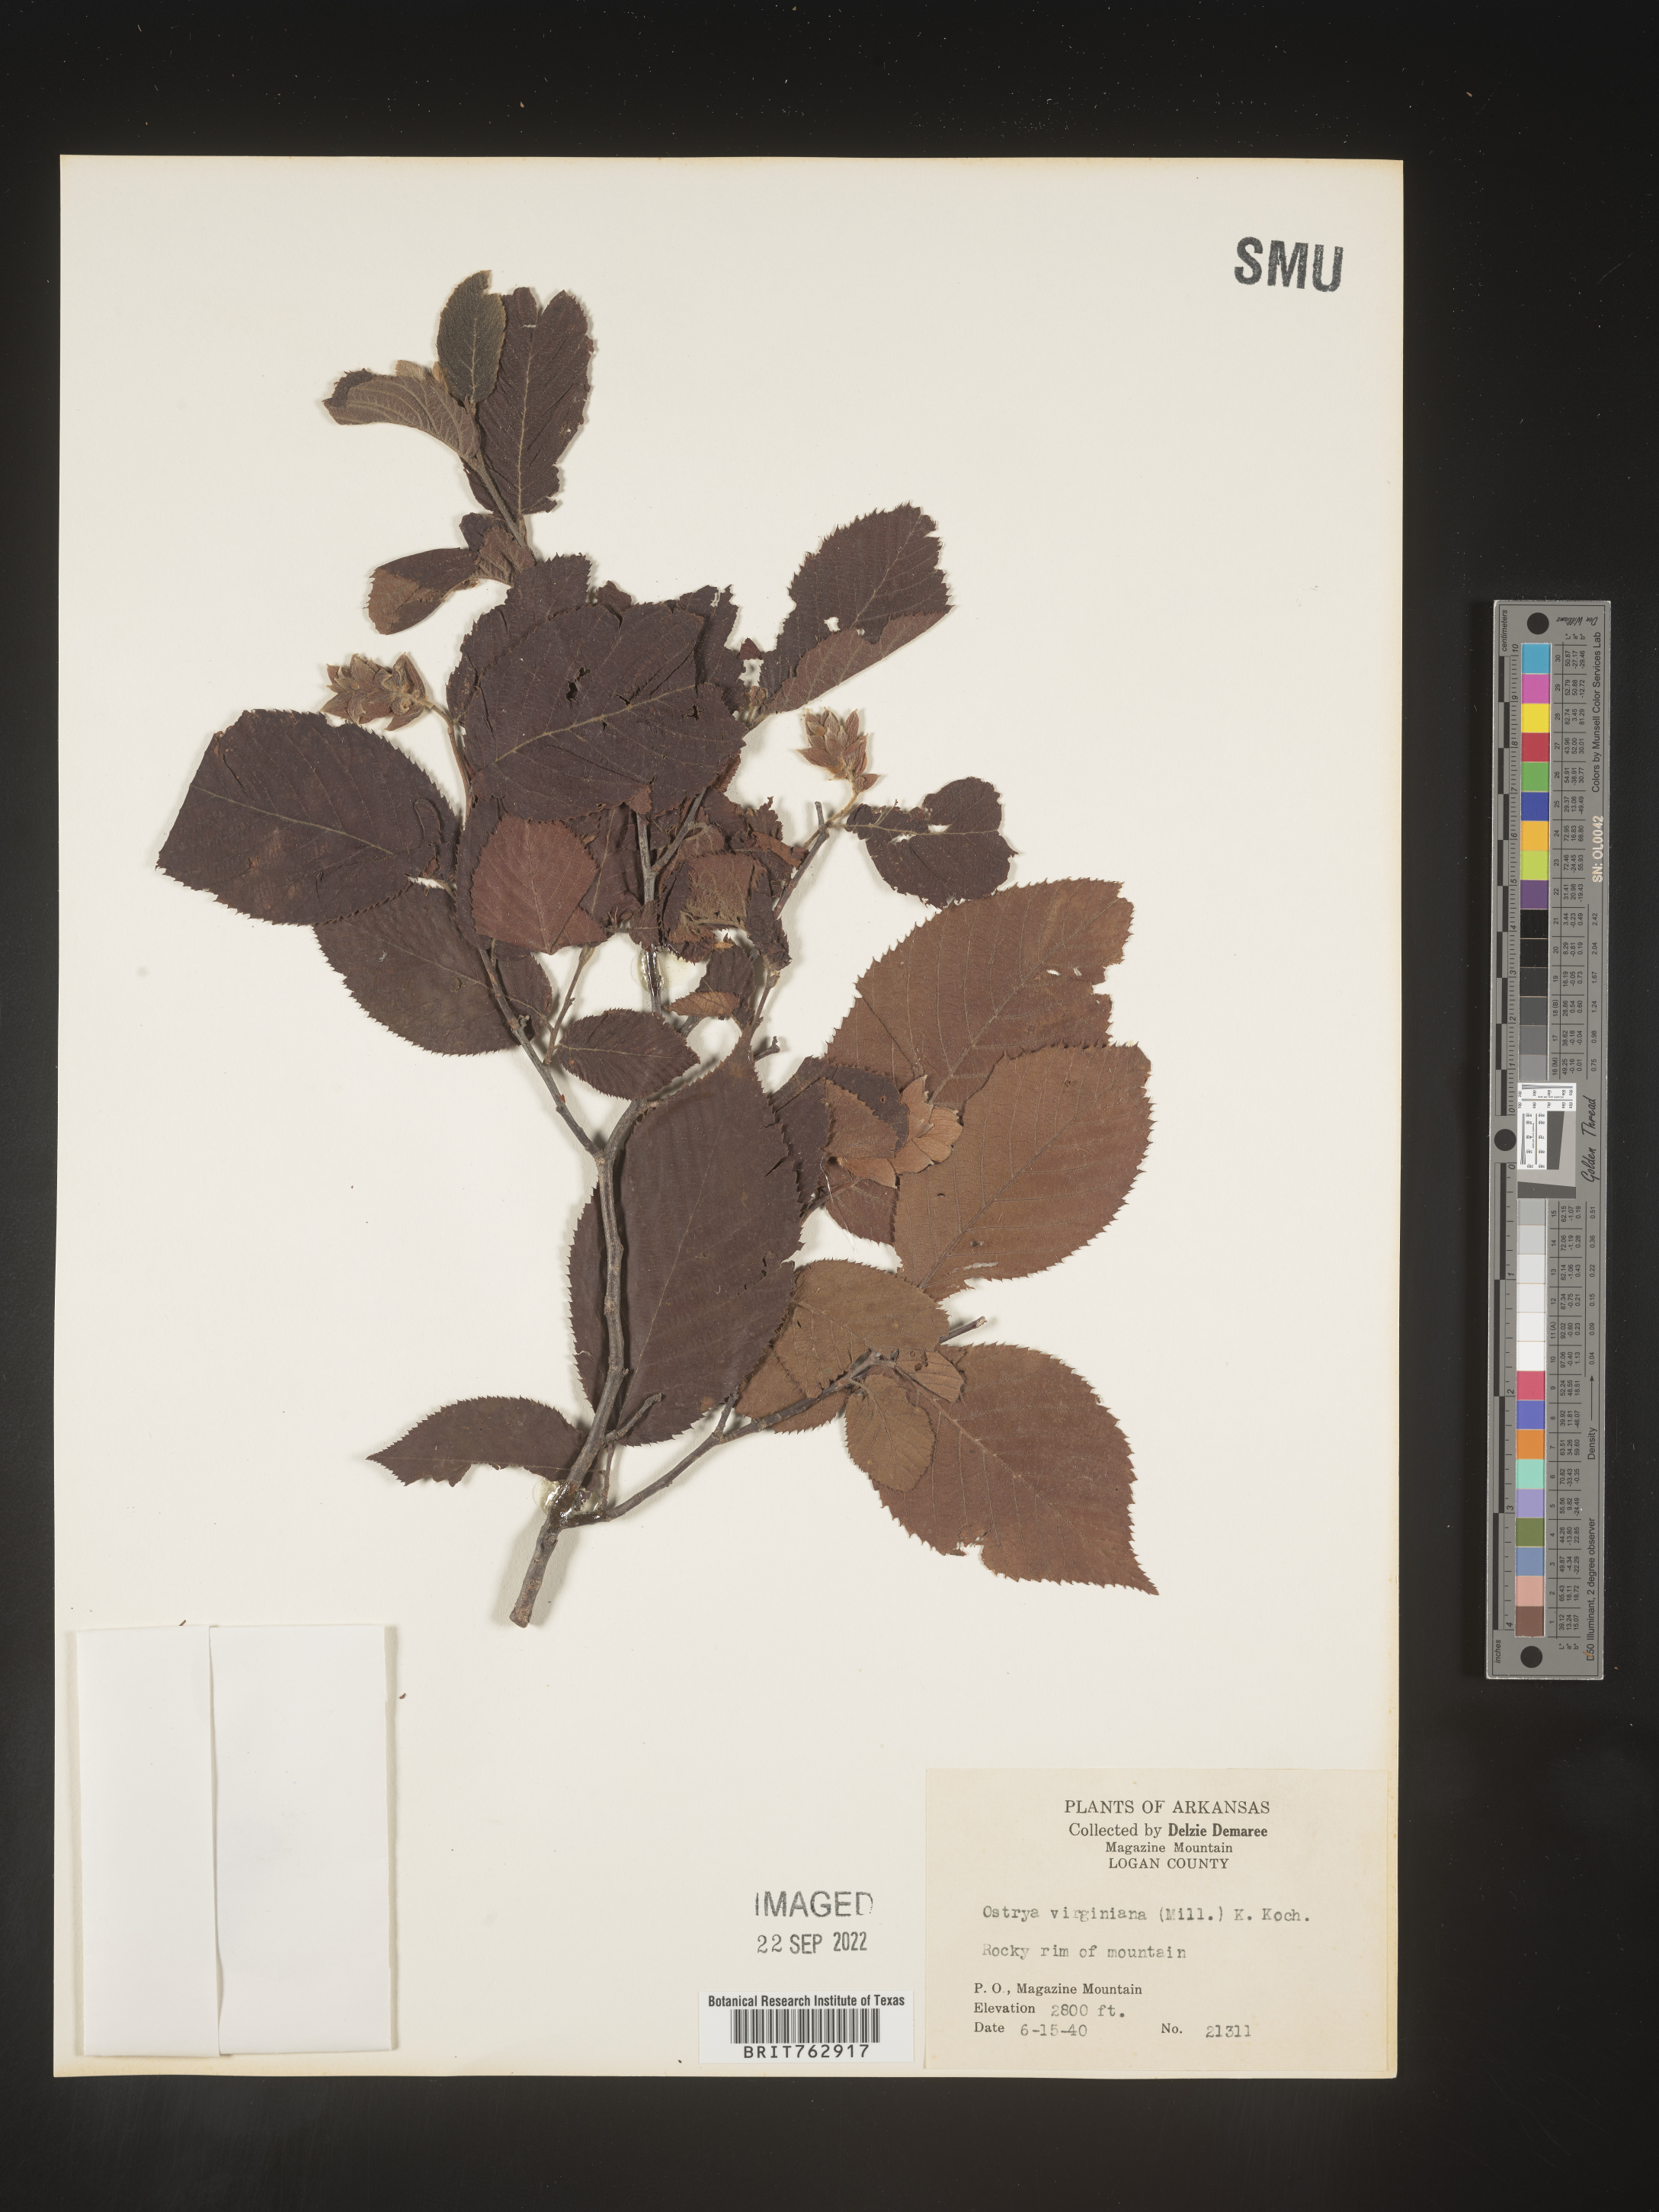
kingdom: Plantae
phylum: Tracheophyta
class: Magnoliopsida
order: Fagales
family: Betulaceae
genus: Ostrya
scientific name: Ostrya virginiana
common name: Ironwood
